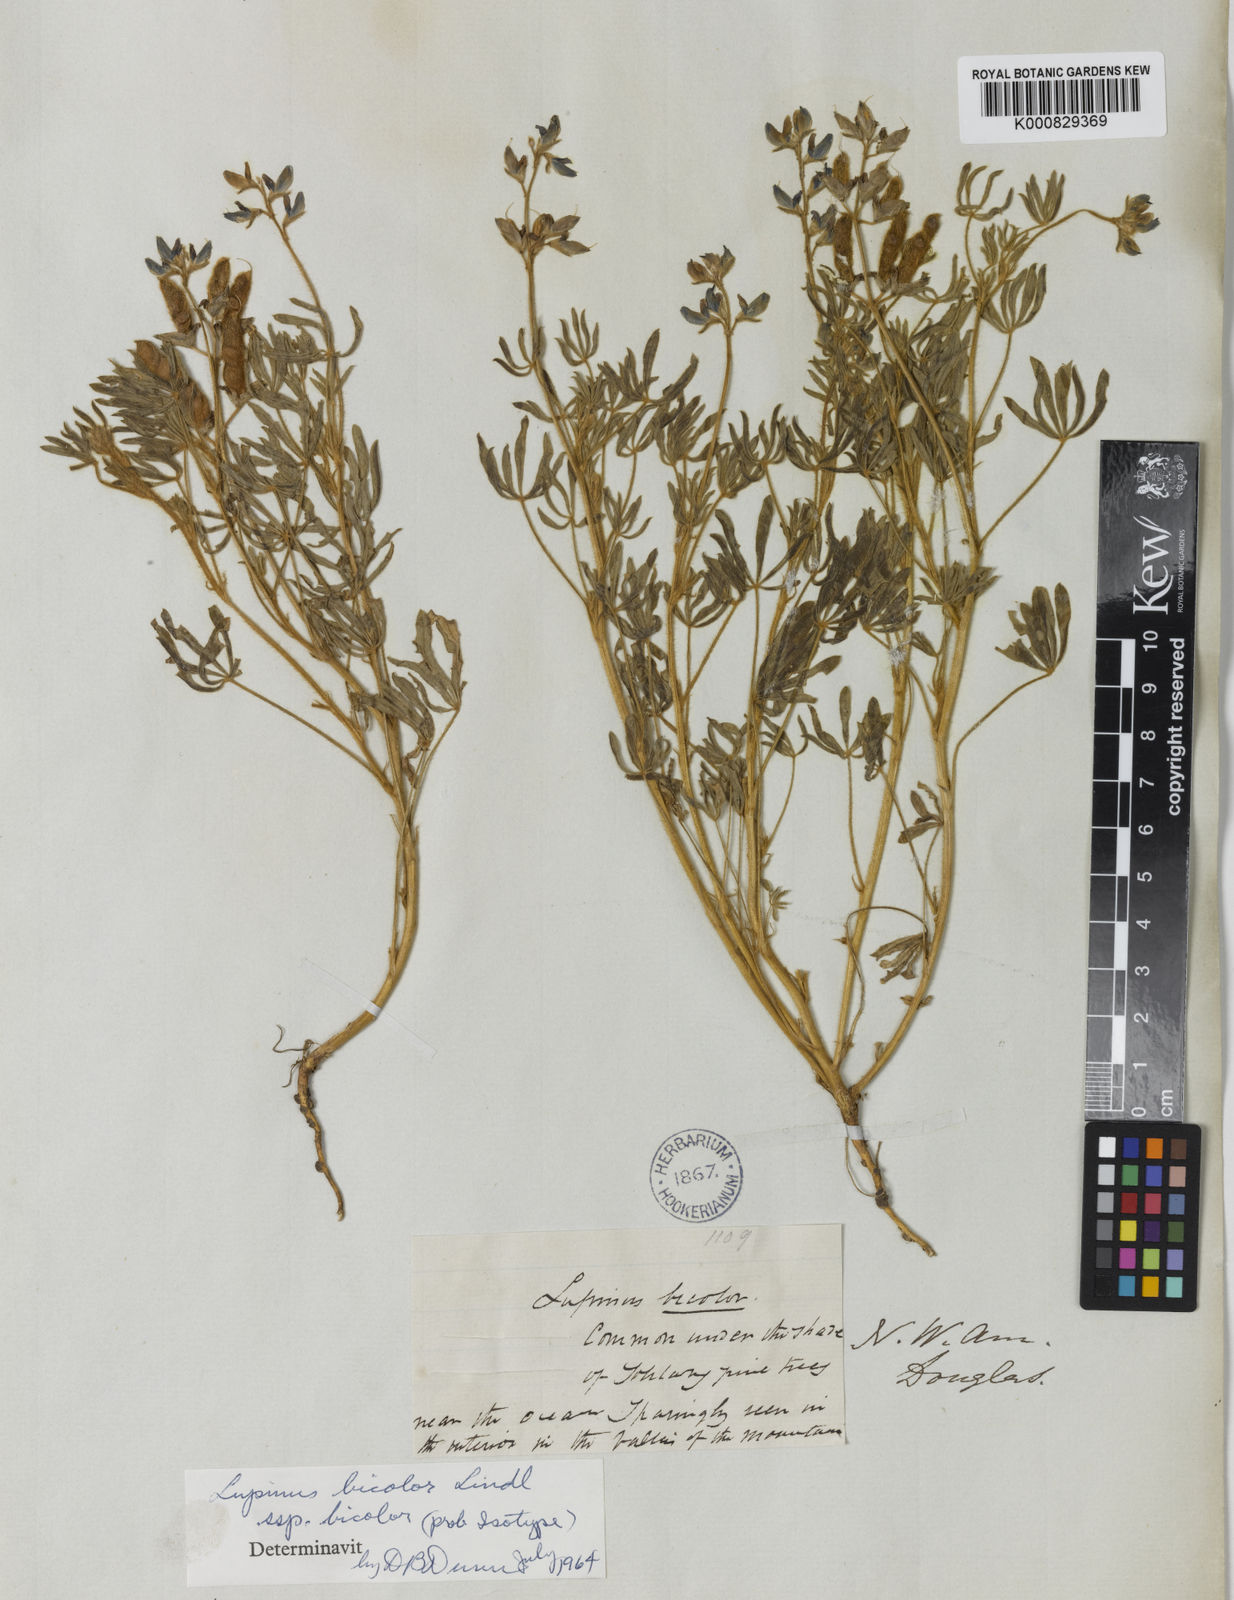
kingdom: Plantae
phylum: Tracheophyta
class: Magnoliopsida
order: Fabales
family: Fabaceae
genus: Lupinus
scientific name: Lupinus bicolor
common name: Miniature lupine
